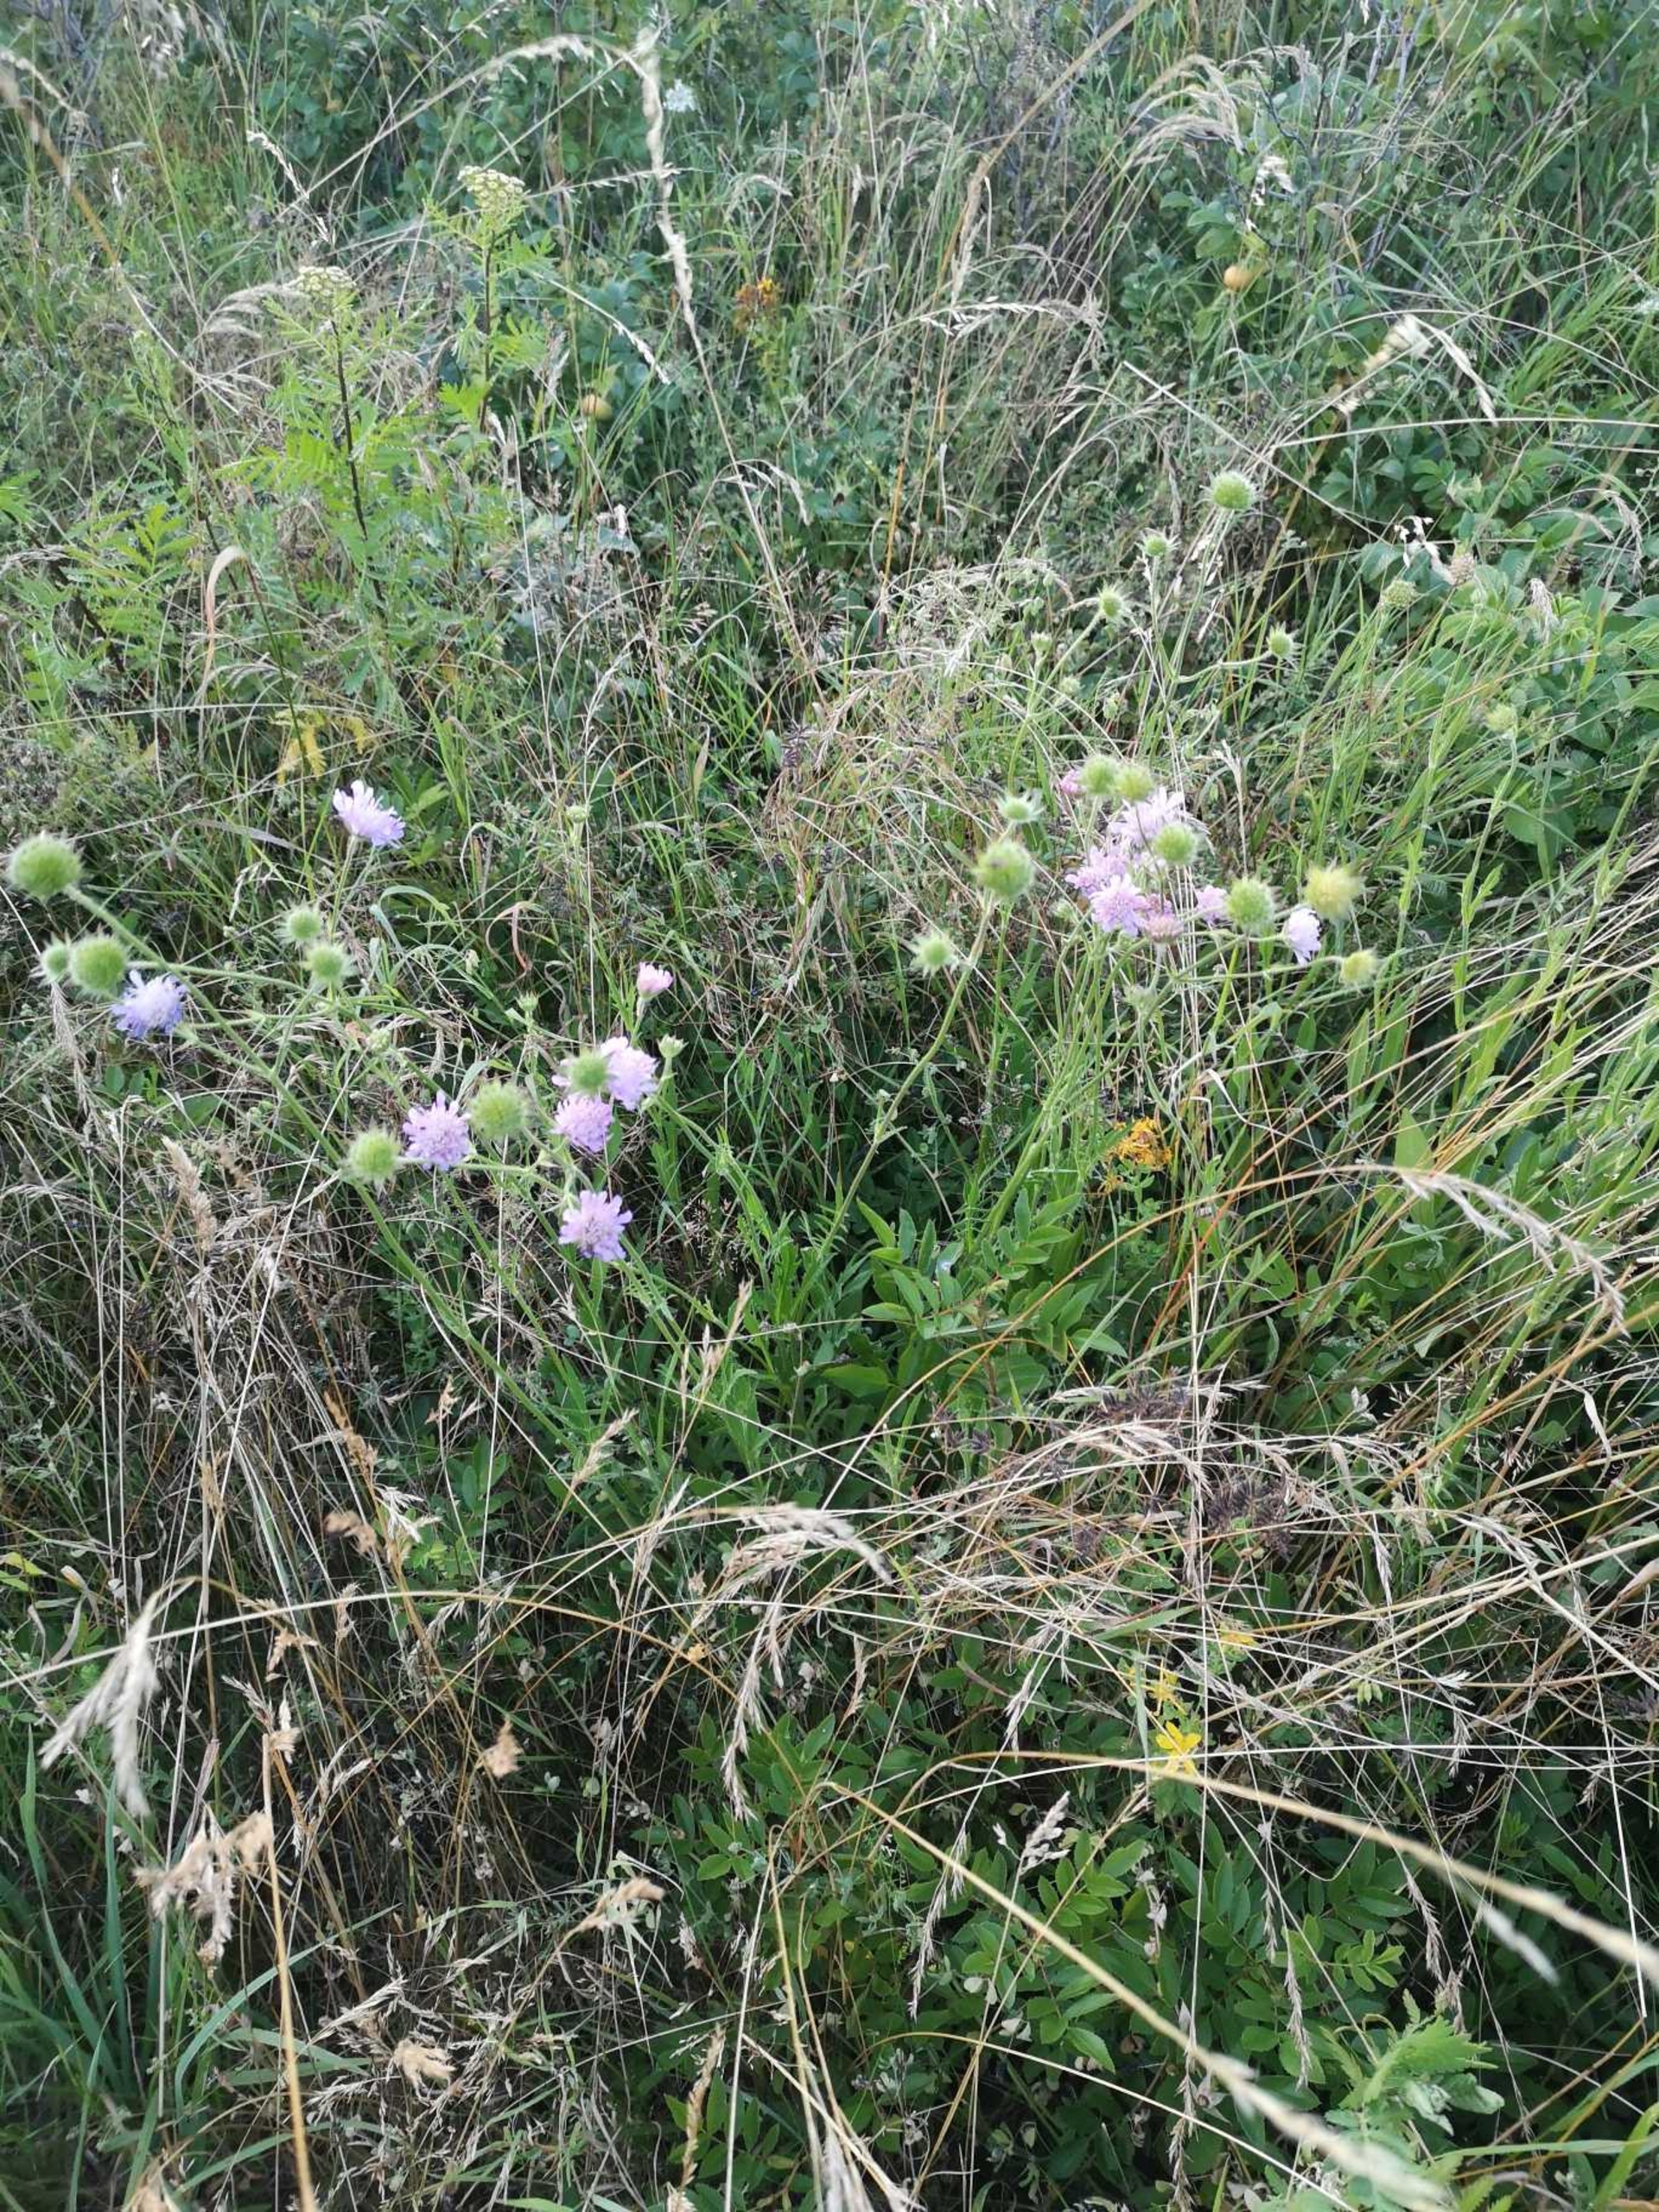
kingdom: Plantae
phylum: Tracheophyta
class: Magnoliopsida
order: Dipsacales
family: Caprifoliaceae
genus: Knautia
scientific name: Knautia arvensis
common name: Blåhat
